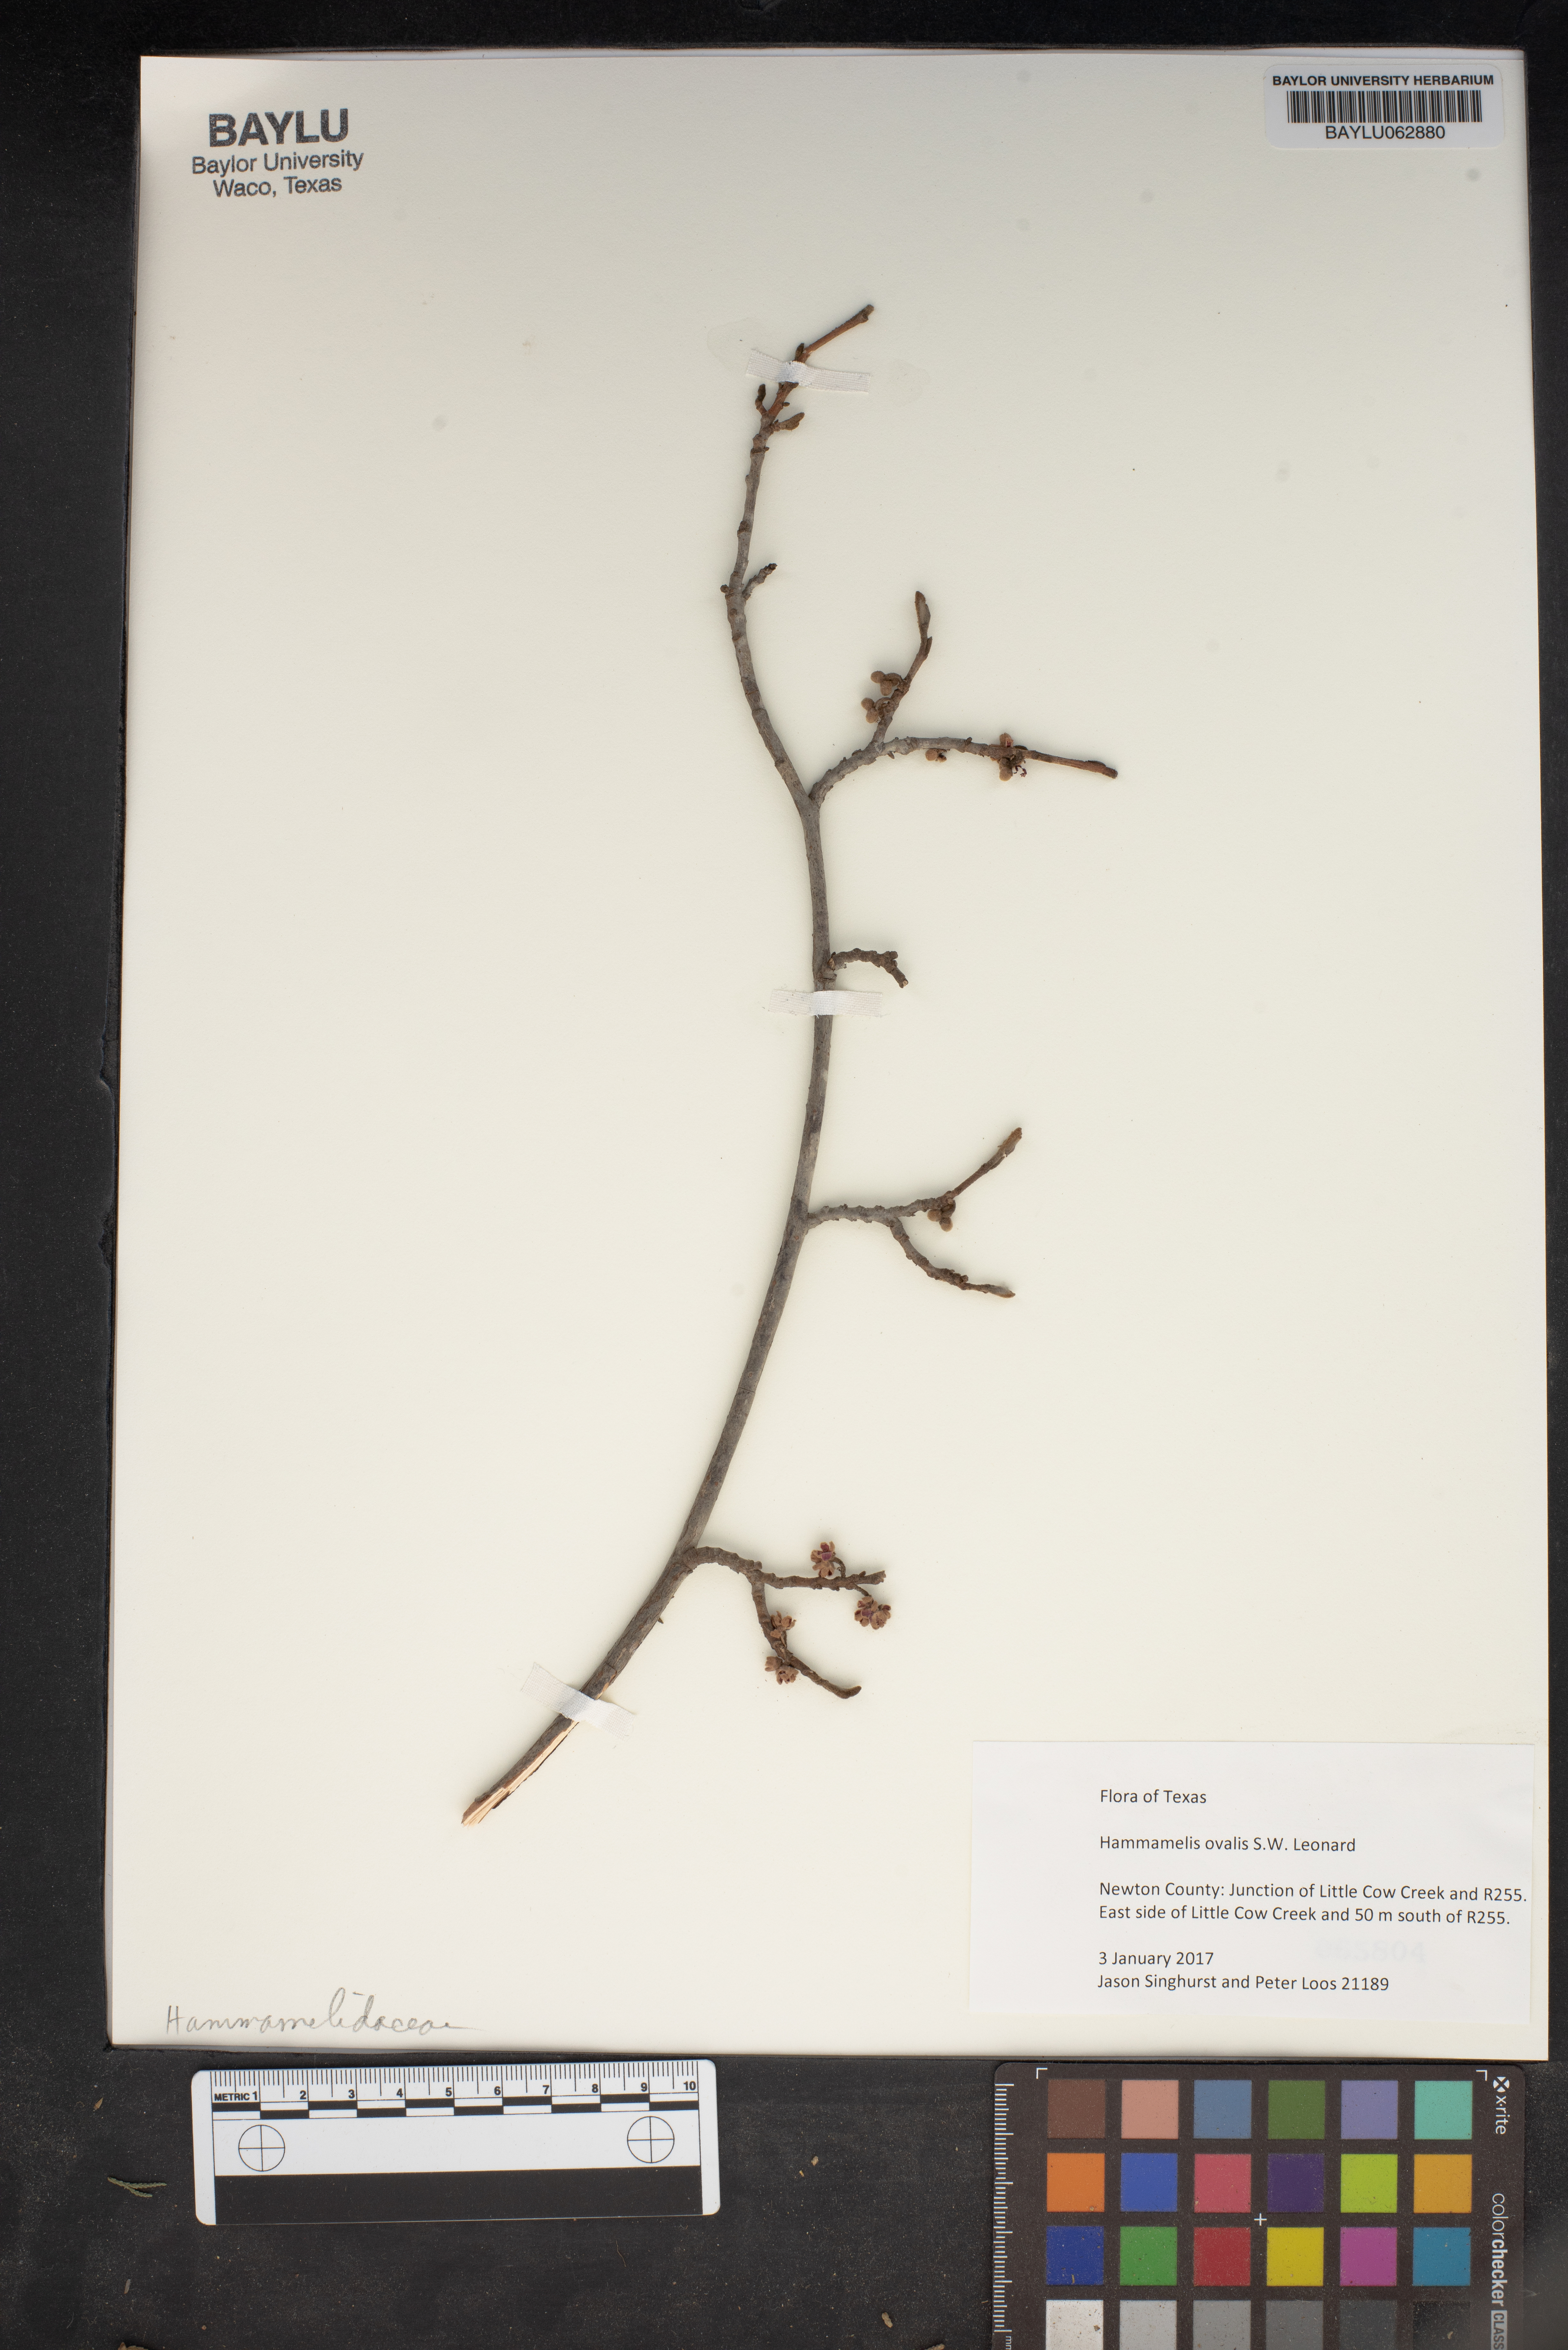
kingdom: Plantae
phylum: Tracheophyta
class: Magnoliopsida
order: Saxifragales
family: Hamamelidaceae
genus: Hamamelis
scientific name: Hamamelis ovalis
